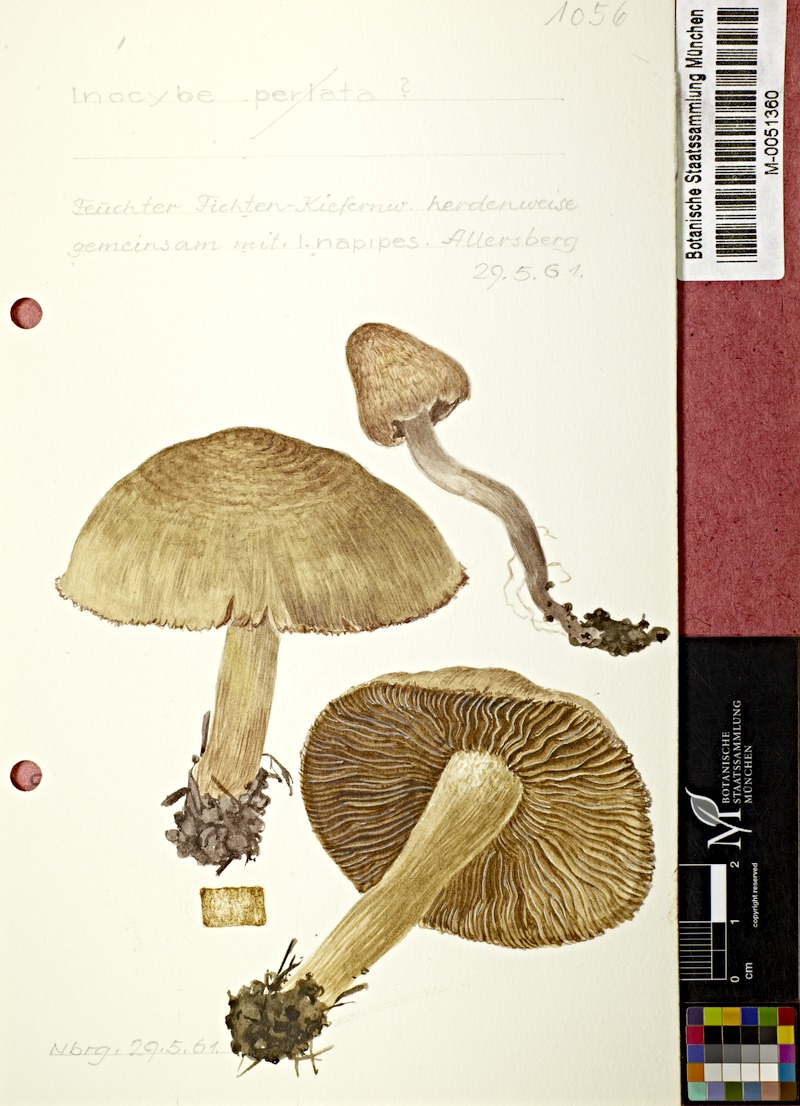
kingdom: Fungi
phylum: Basidiomycota
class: Agaricomycetes
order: Agaricales
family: Inocybaceae
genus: Inosperma
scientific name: Inosperma bongardii
